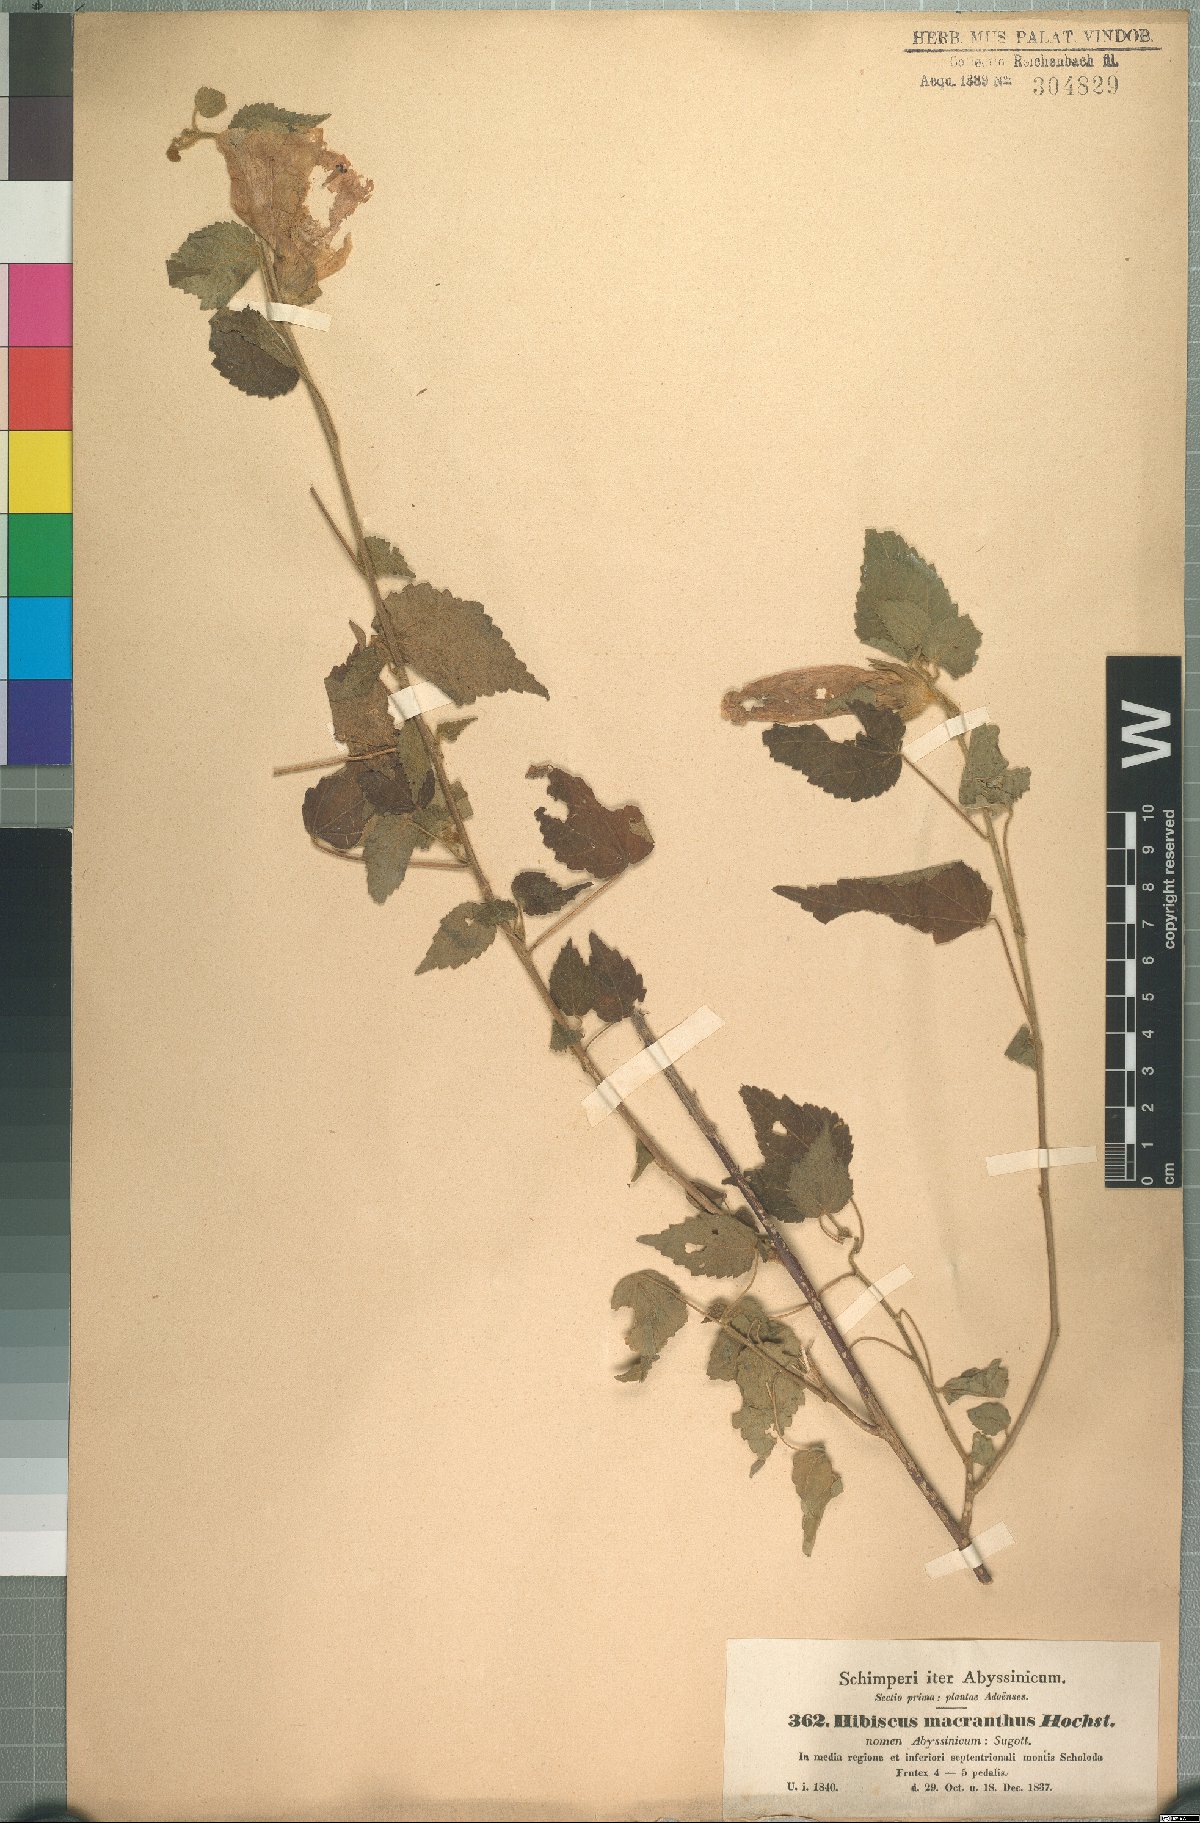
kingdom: Plantae
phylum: Tracheophyta
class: Magnoliopsida
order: Malvales
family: Malvaceae
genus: Hibiscus
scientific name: Hibiscus macranthus
